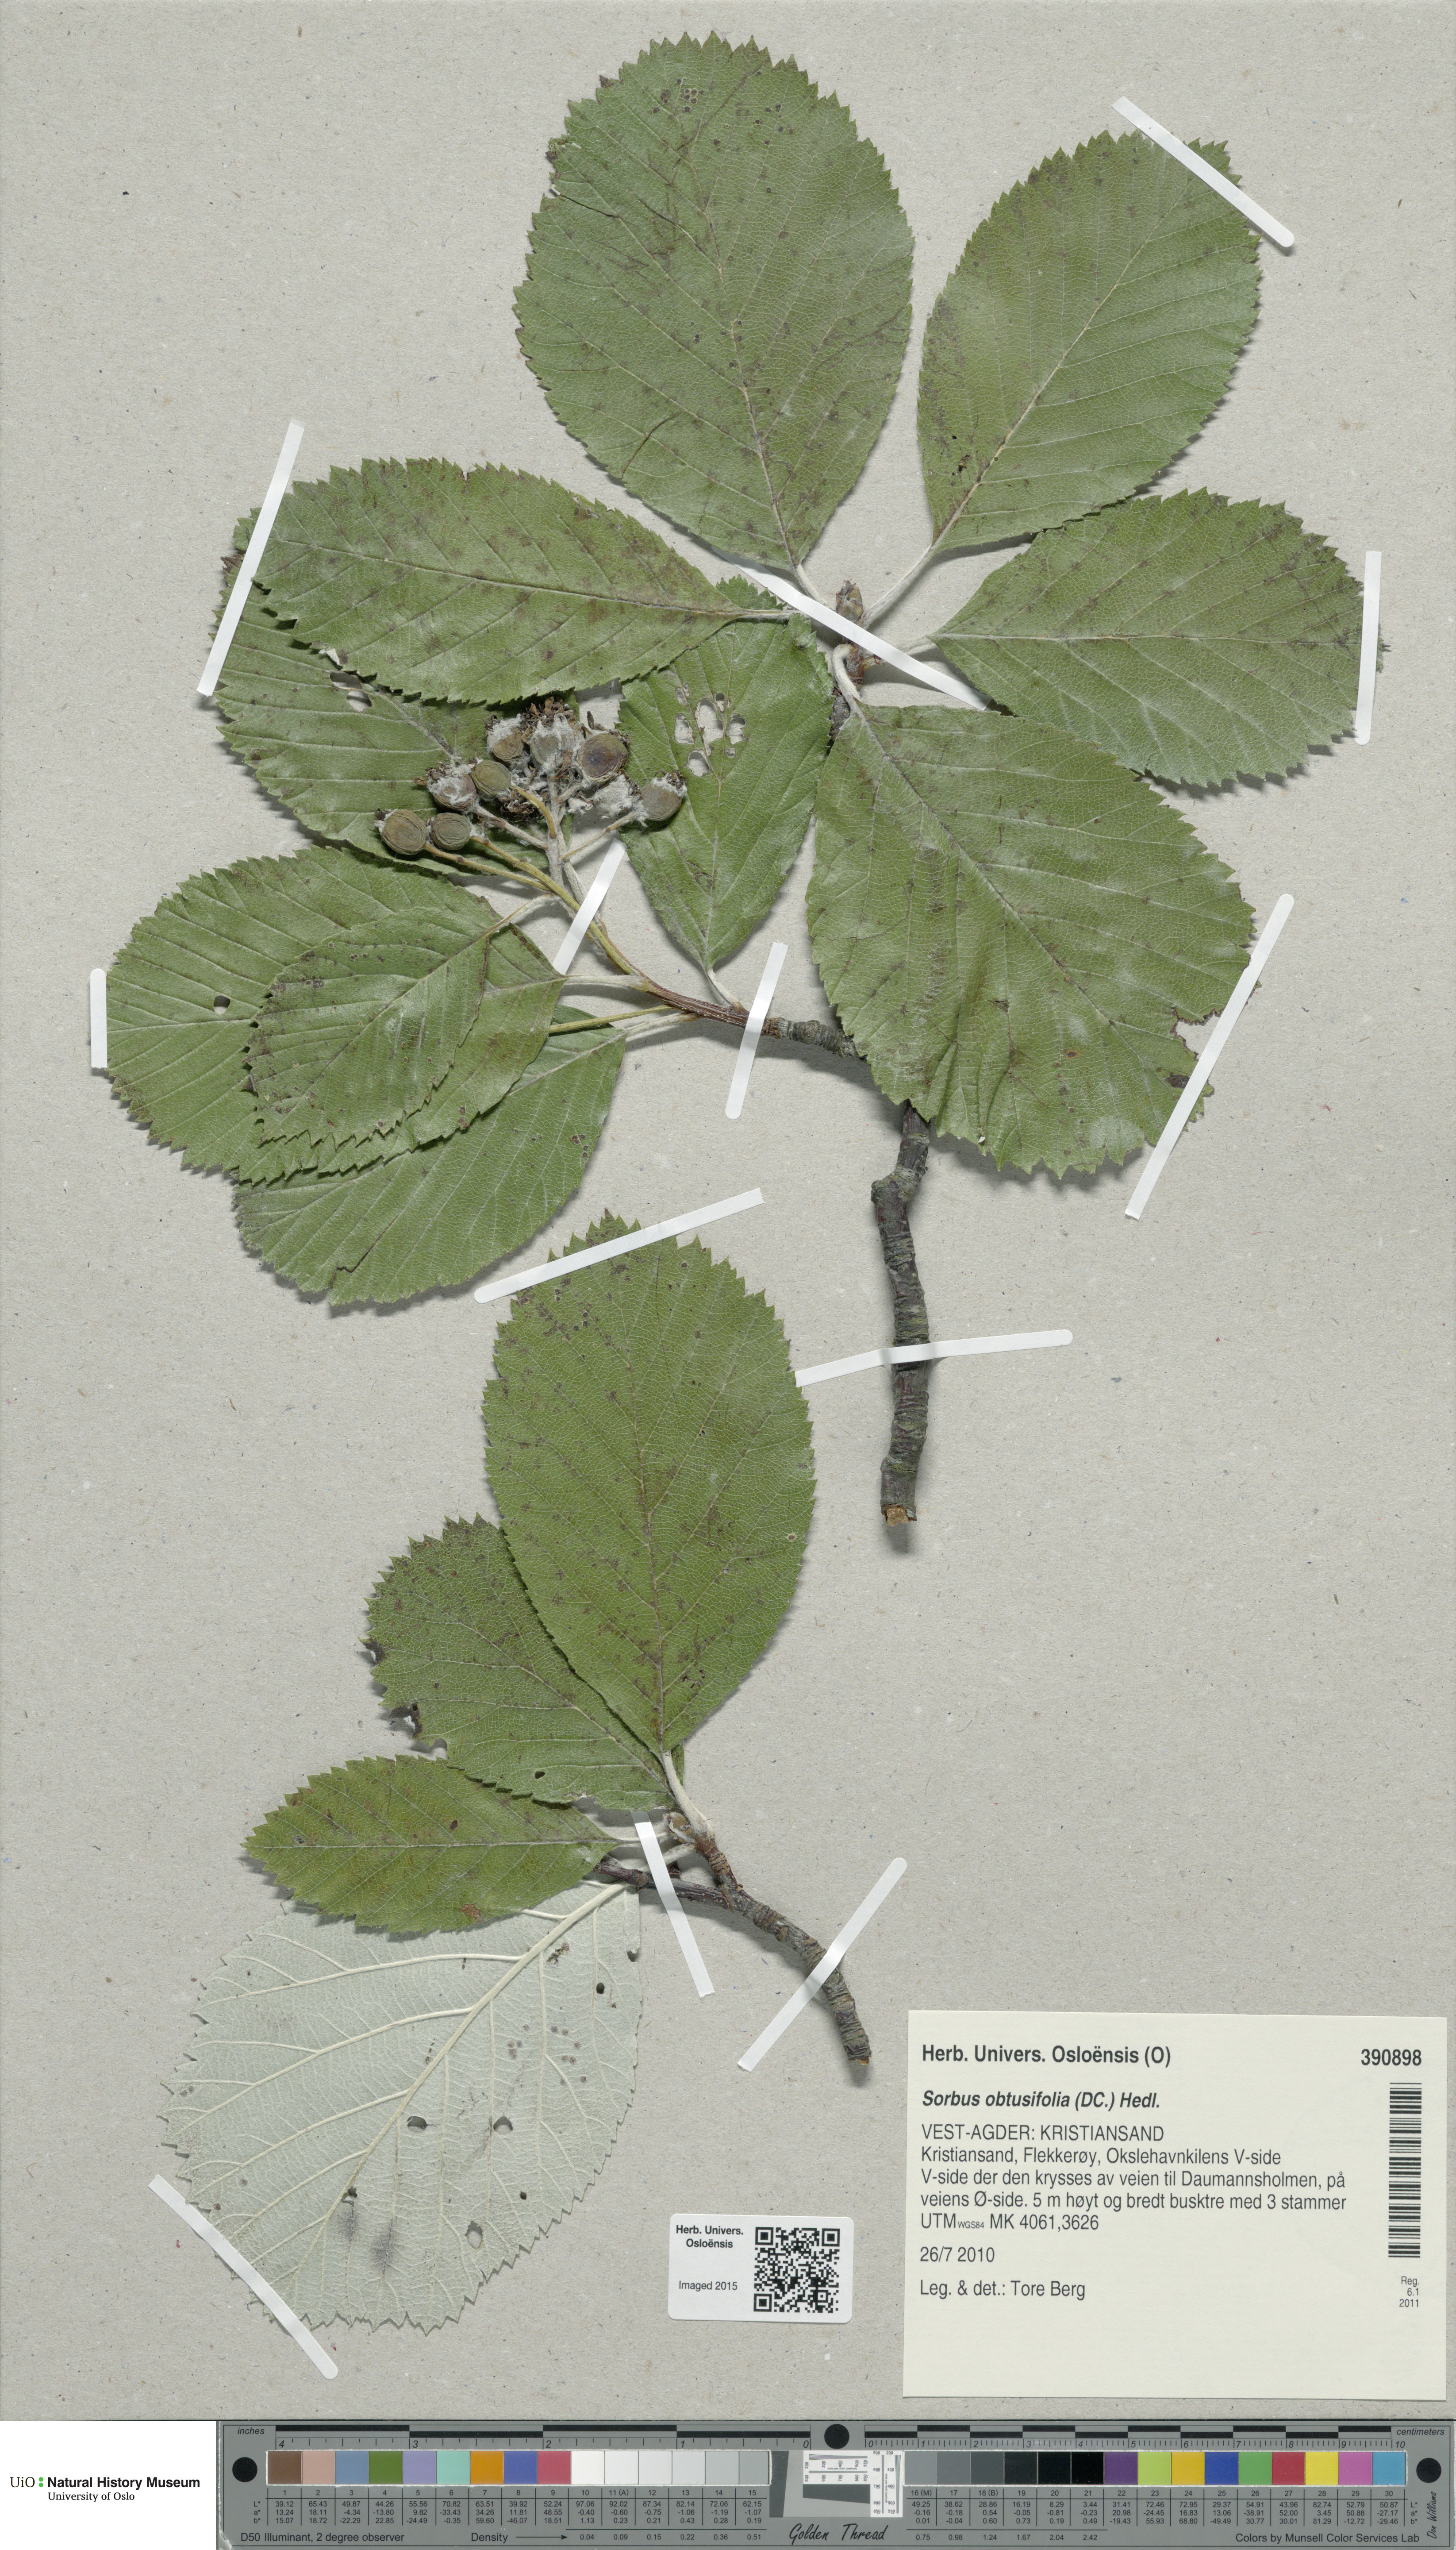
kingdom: Plantae
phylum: Tracheophyta
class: Magnoliopsida
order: Rosales
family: Rosaceae
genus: Aria
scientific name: Aria obtusifolia
